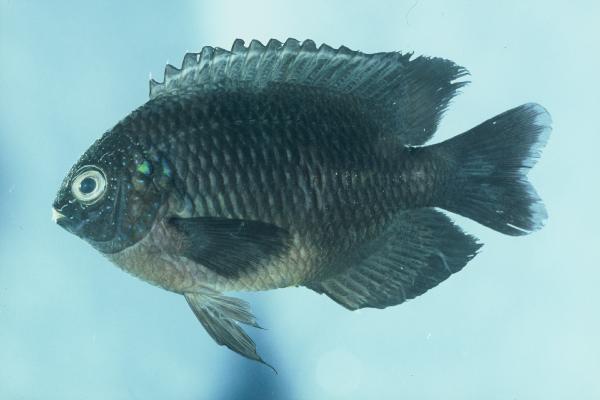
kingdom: Animalia
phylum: Chordata
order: Perciformes
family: Pomacentridae
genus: Pomacentrus
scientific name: Pomacentrus milleri
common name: Miller's damselfish
